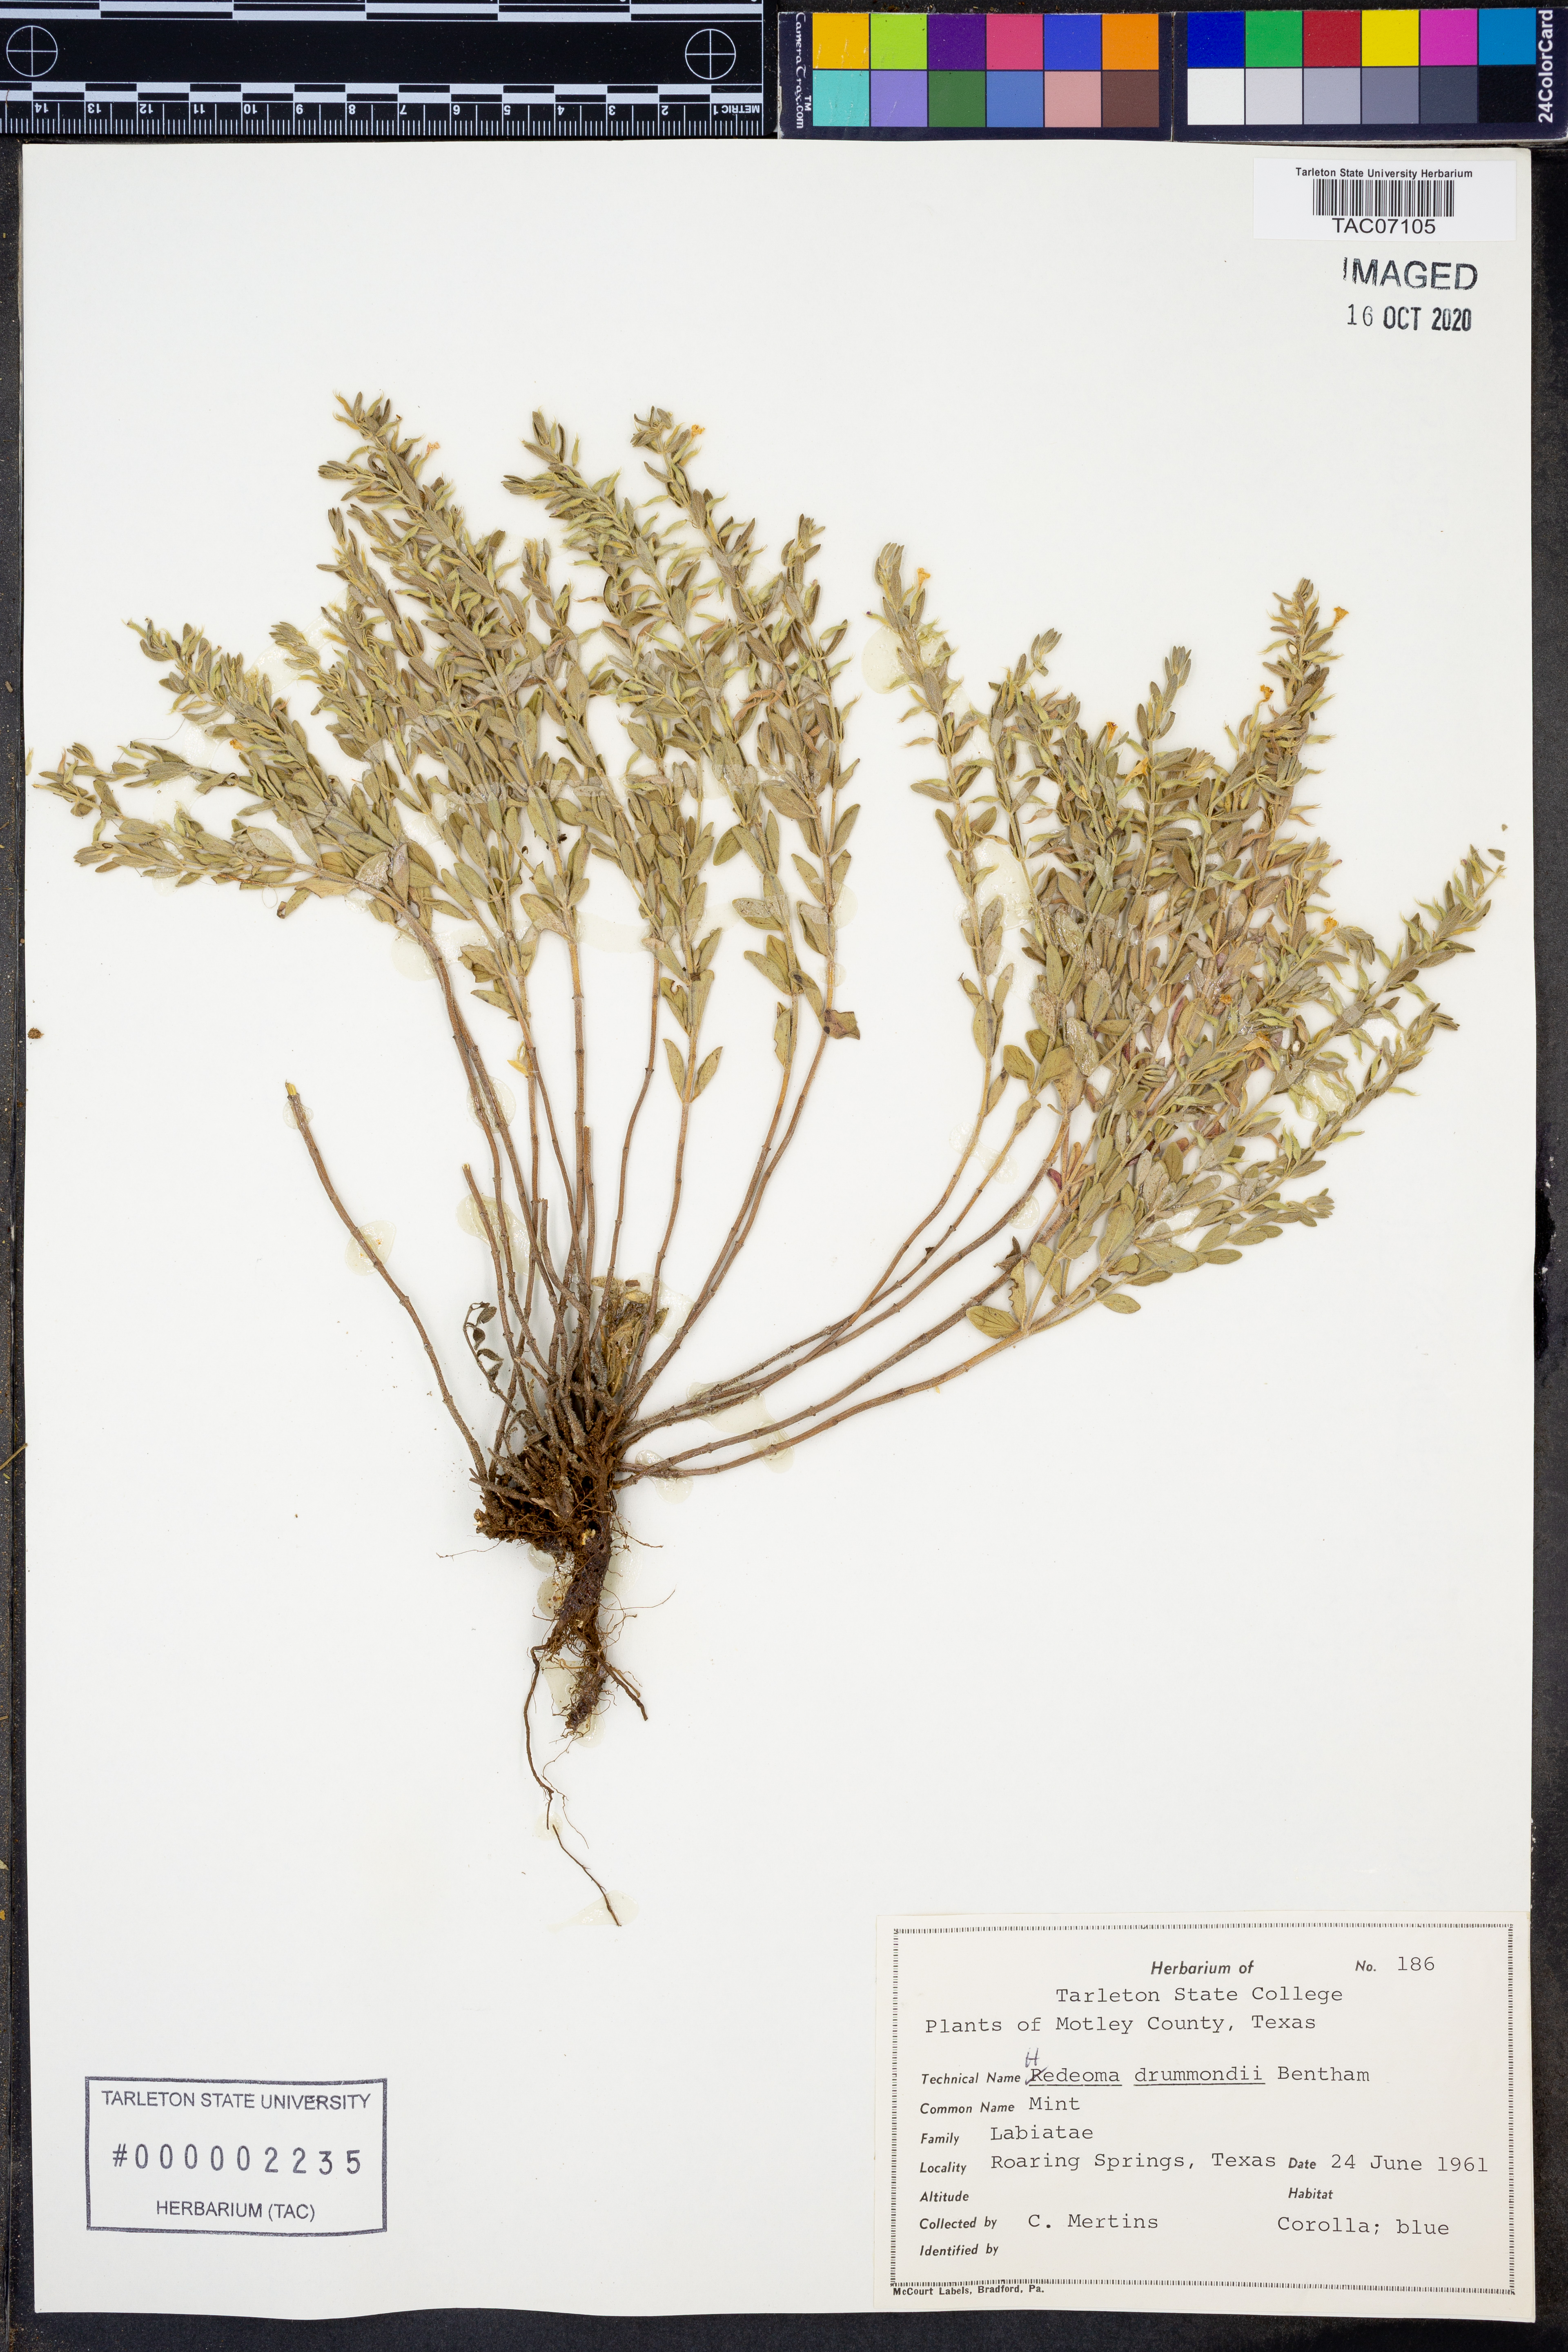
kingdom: Plantae
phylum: Tracheophyta
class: Magnoliopsida
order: Lamiales
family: Lamiaceae
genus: Hedeoma
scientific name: Hedeoma drummondii
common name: New mexico pennyroyal
